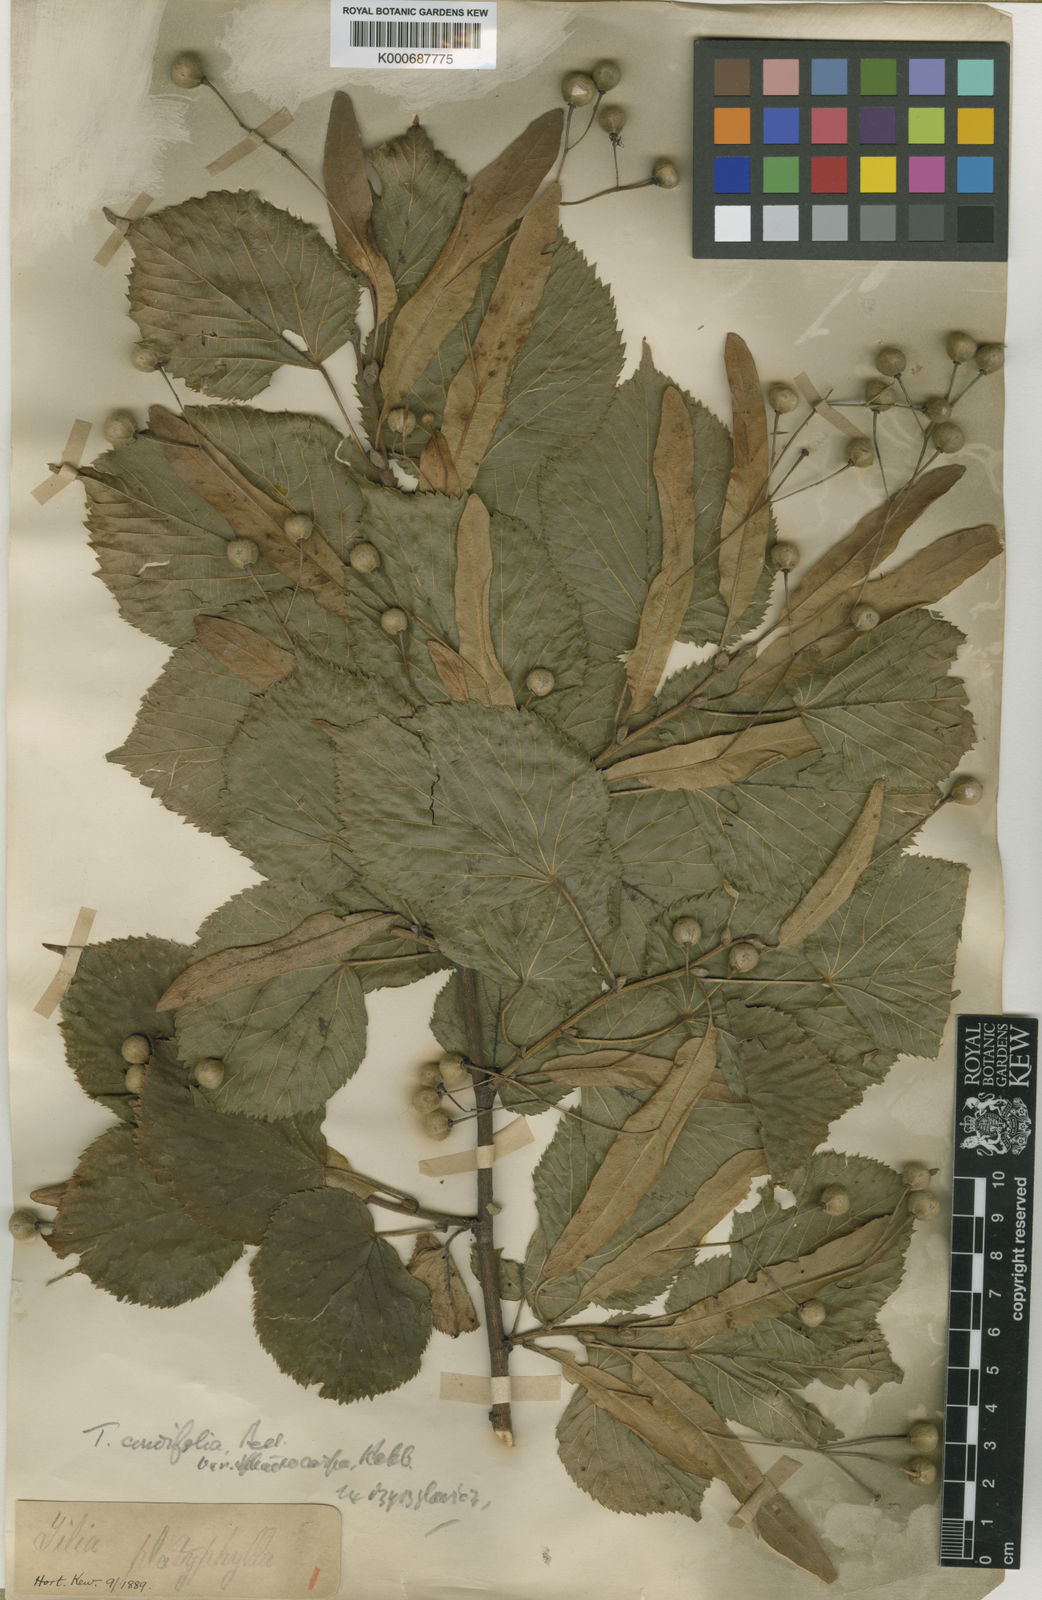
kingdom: Plantae
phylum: Tracheophyta
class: Magnoliopsida
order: Malvales
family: Malvaceae
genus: Tilia
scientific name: Tilia platyphyllos
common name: Large-leaved lime
